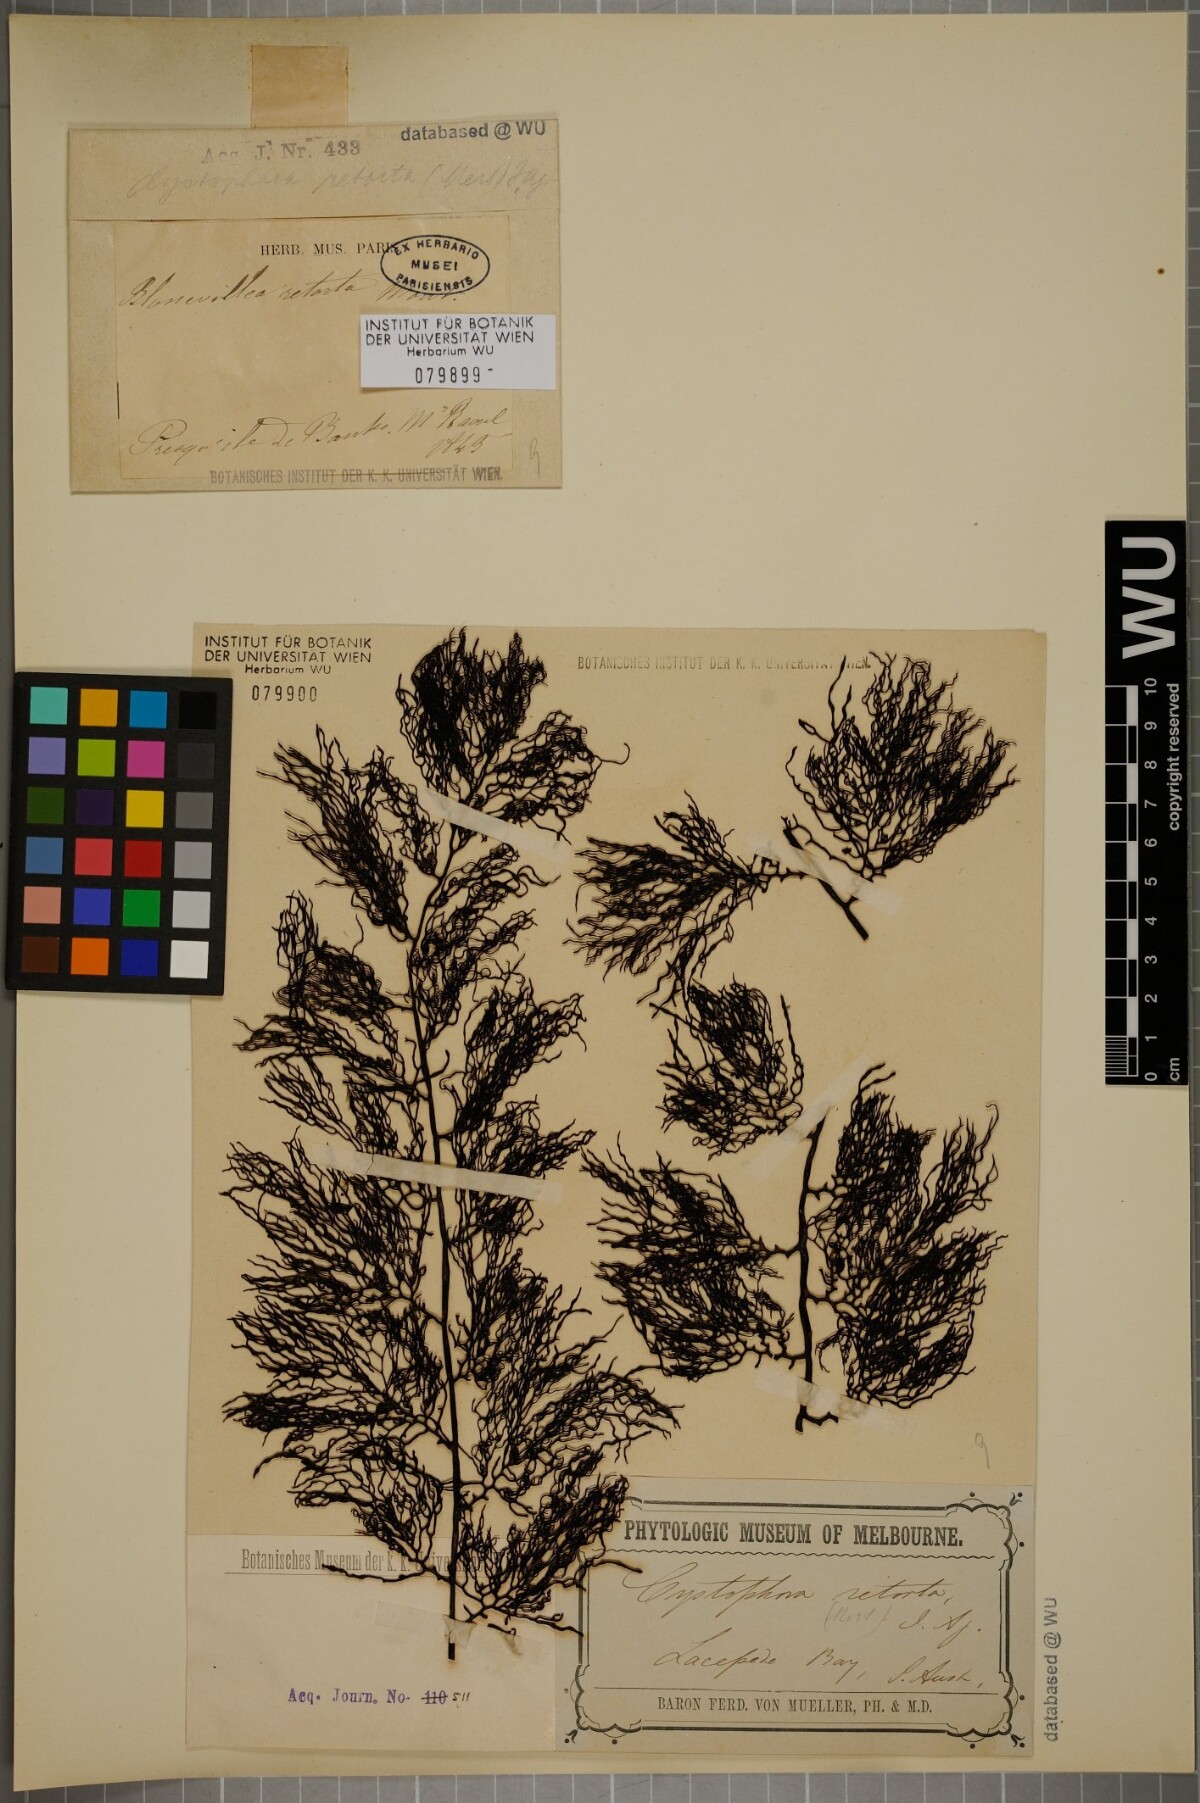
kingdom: Chromista
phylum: Ochrophyta
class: Phaeophyceae
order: Fucales
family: Sargassaceae
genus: Cystophora
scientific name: Cystophora
